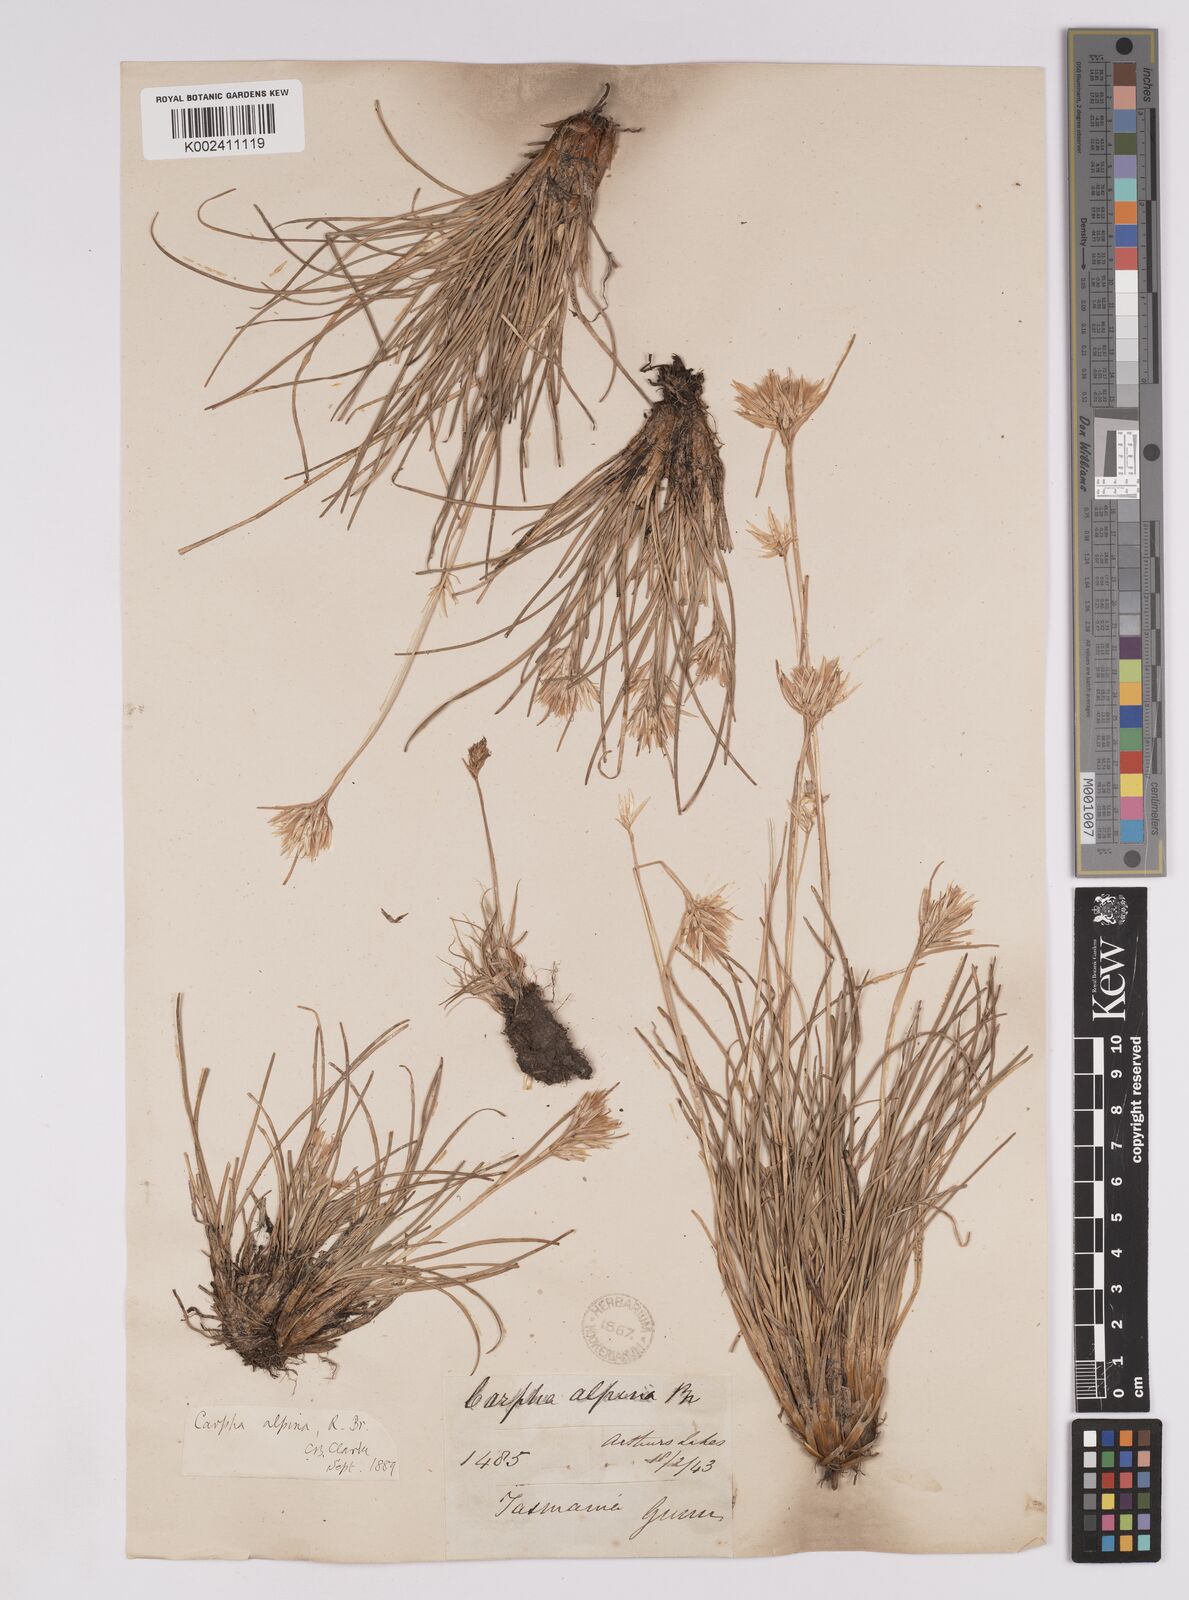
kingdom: Plantae
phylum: Tracheophyta
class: Liliopsida
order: Poales
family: Cyperaceae
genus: Carpha
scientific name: Carpha alpina
